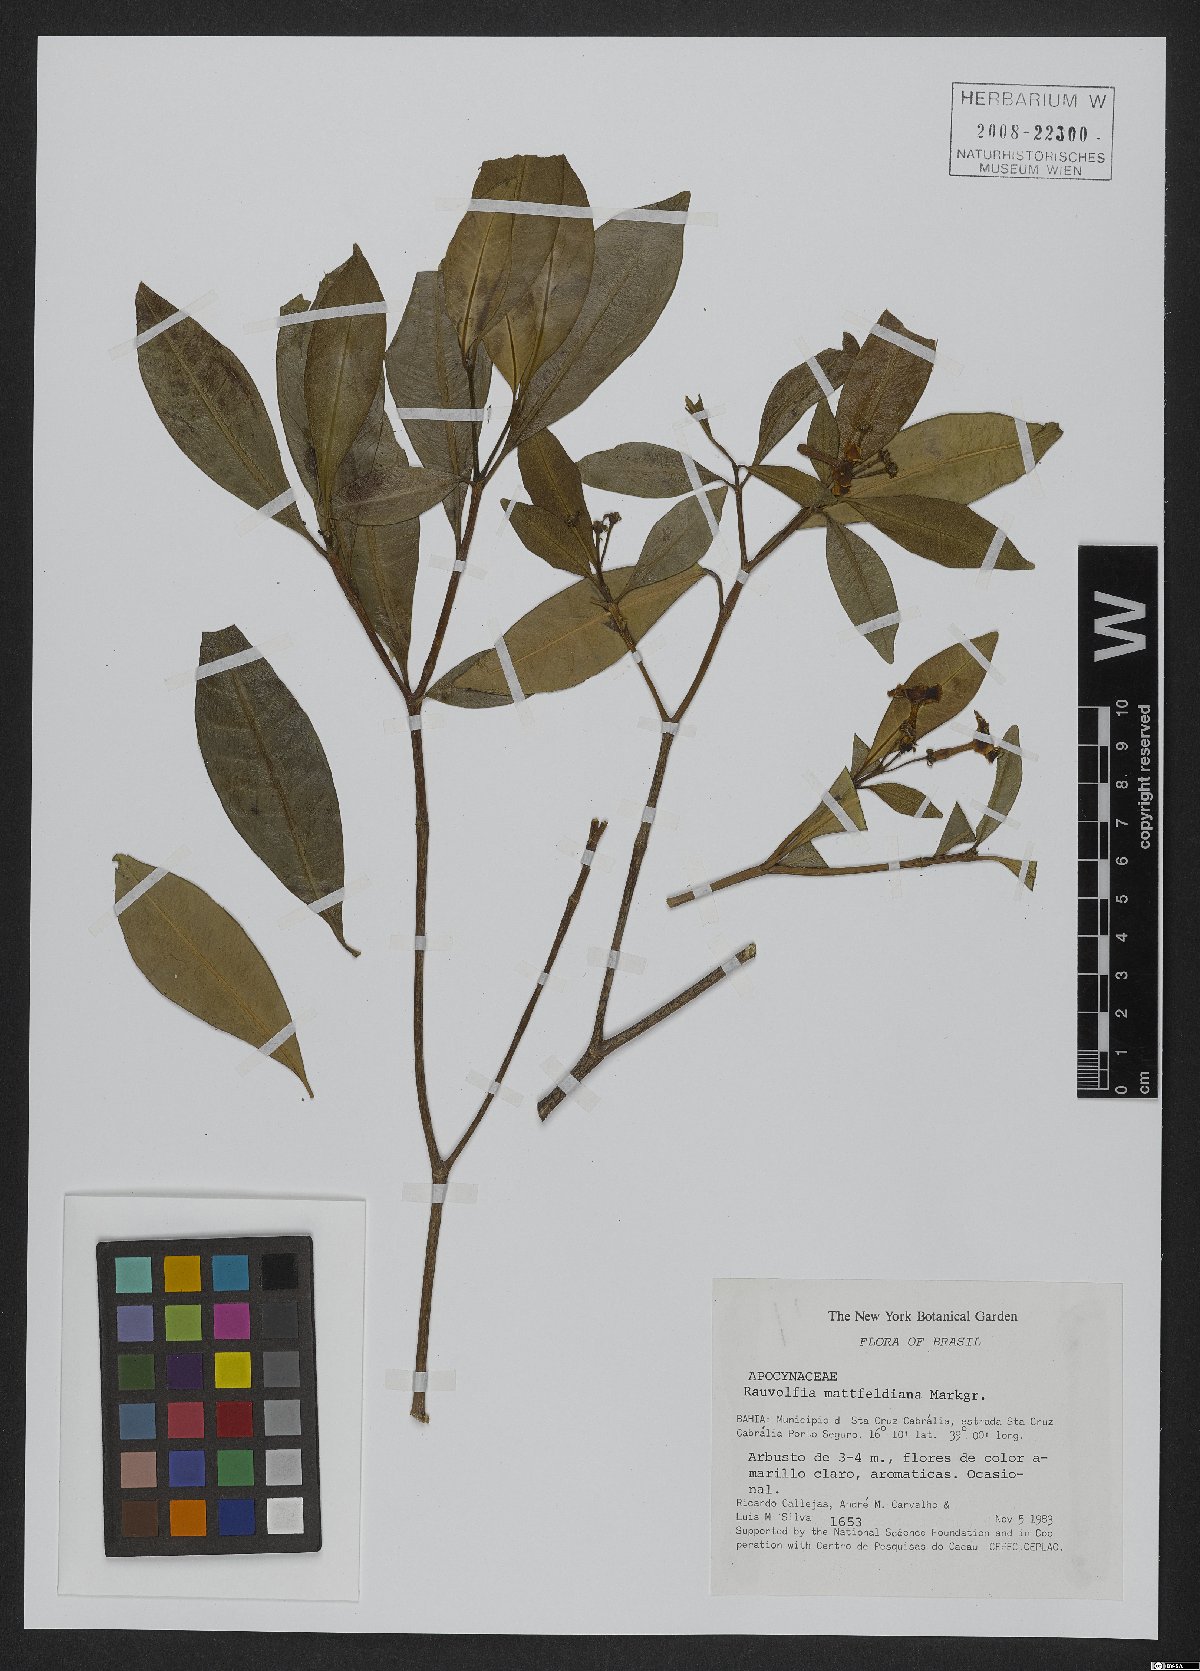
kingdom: Plantae
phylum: Tracheophyta
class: Magnoliopsida
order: Gentianales
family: Apocynaceae
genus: Rauvolfia
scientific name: Rauvolfia mattfeldiana
